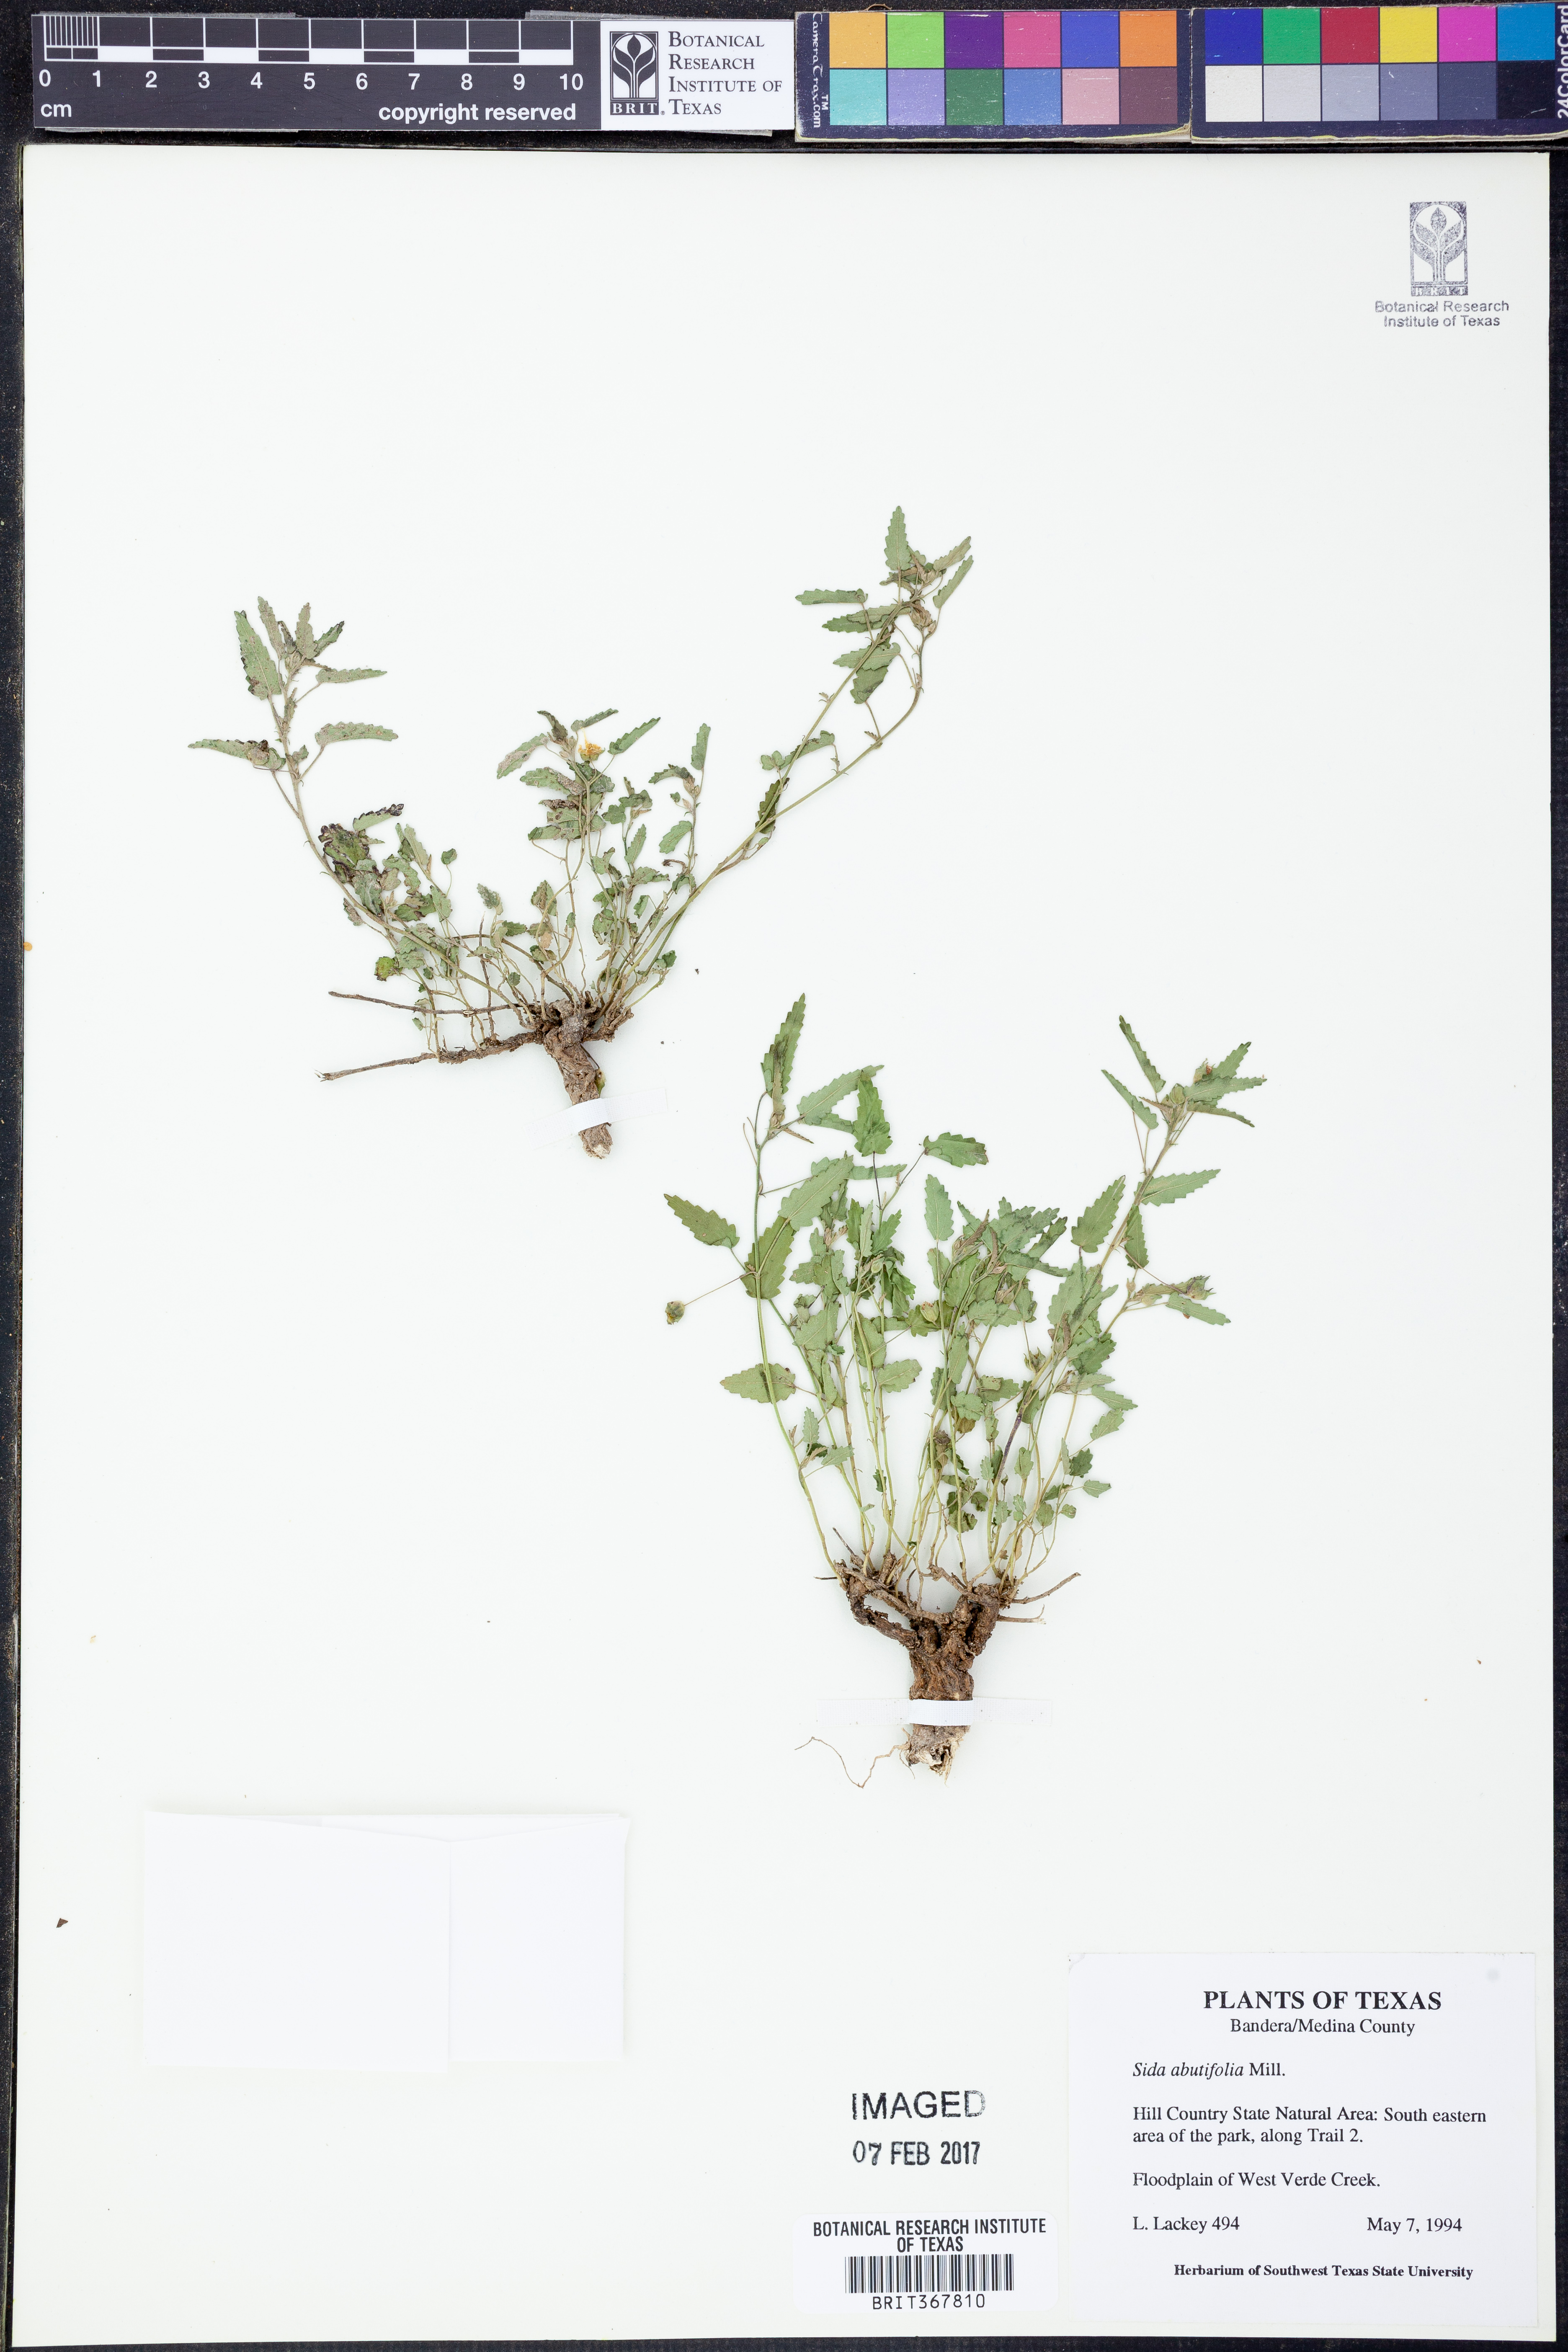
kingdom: Plantae
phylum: Tracheophyta
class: Magnoliopsida
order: Malvales
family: Malvaceae
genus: Sida
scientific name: Sida abutifolia
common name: Spreading fantails
